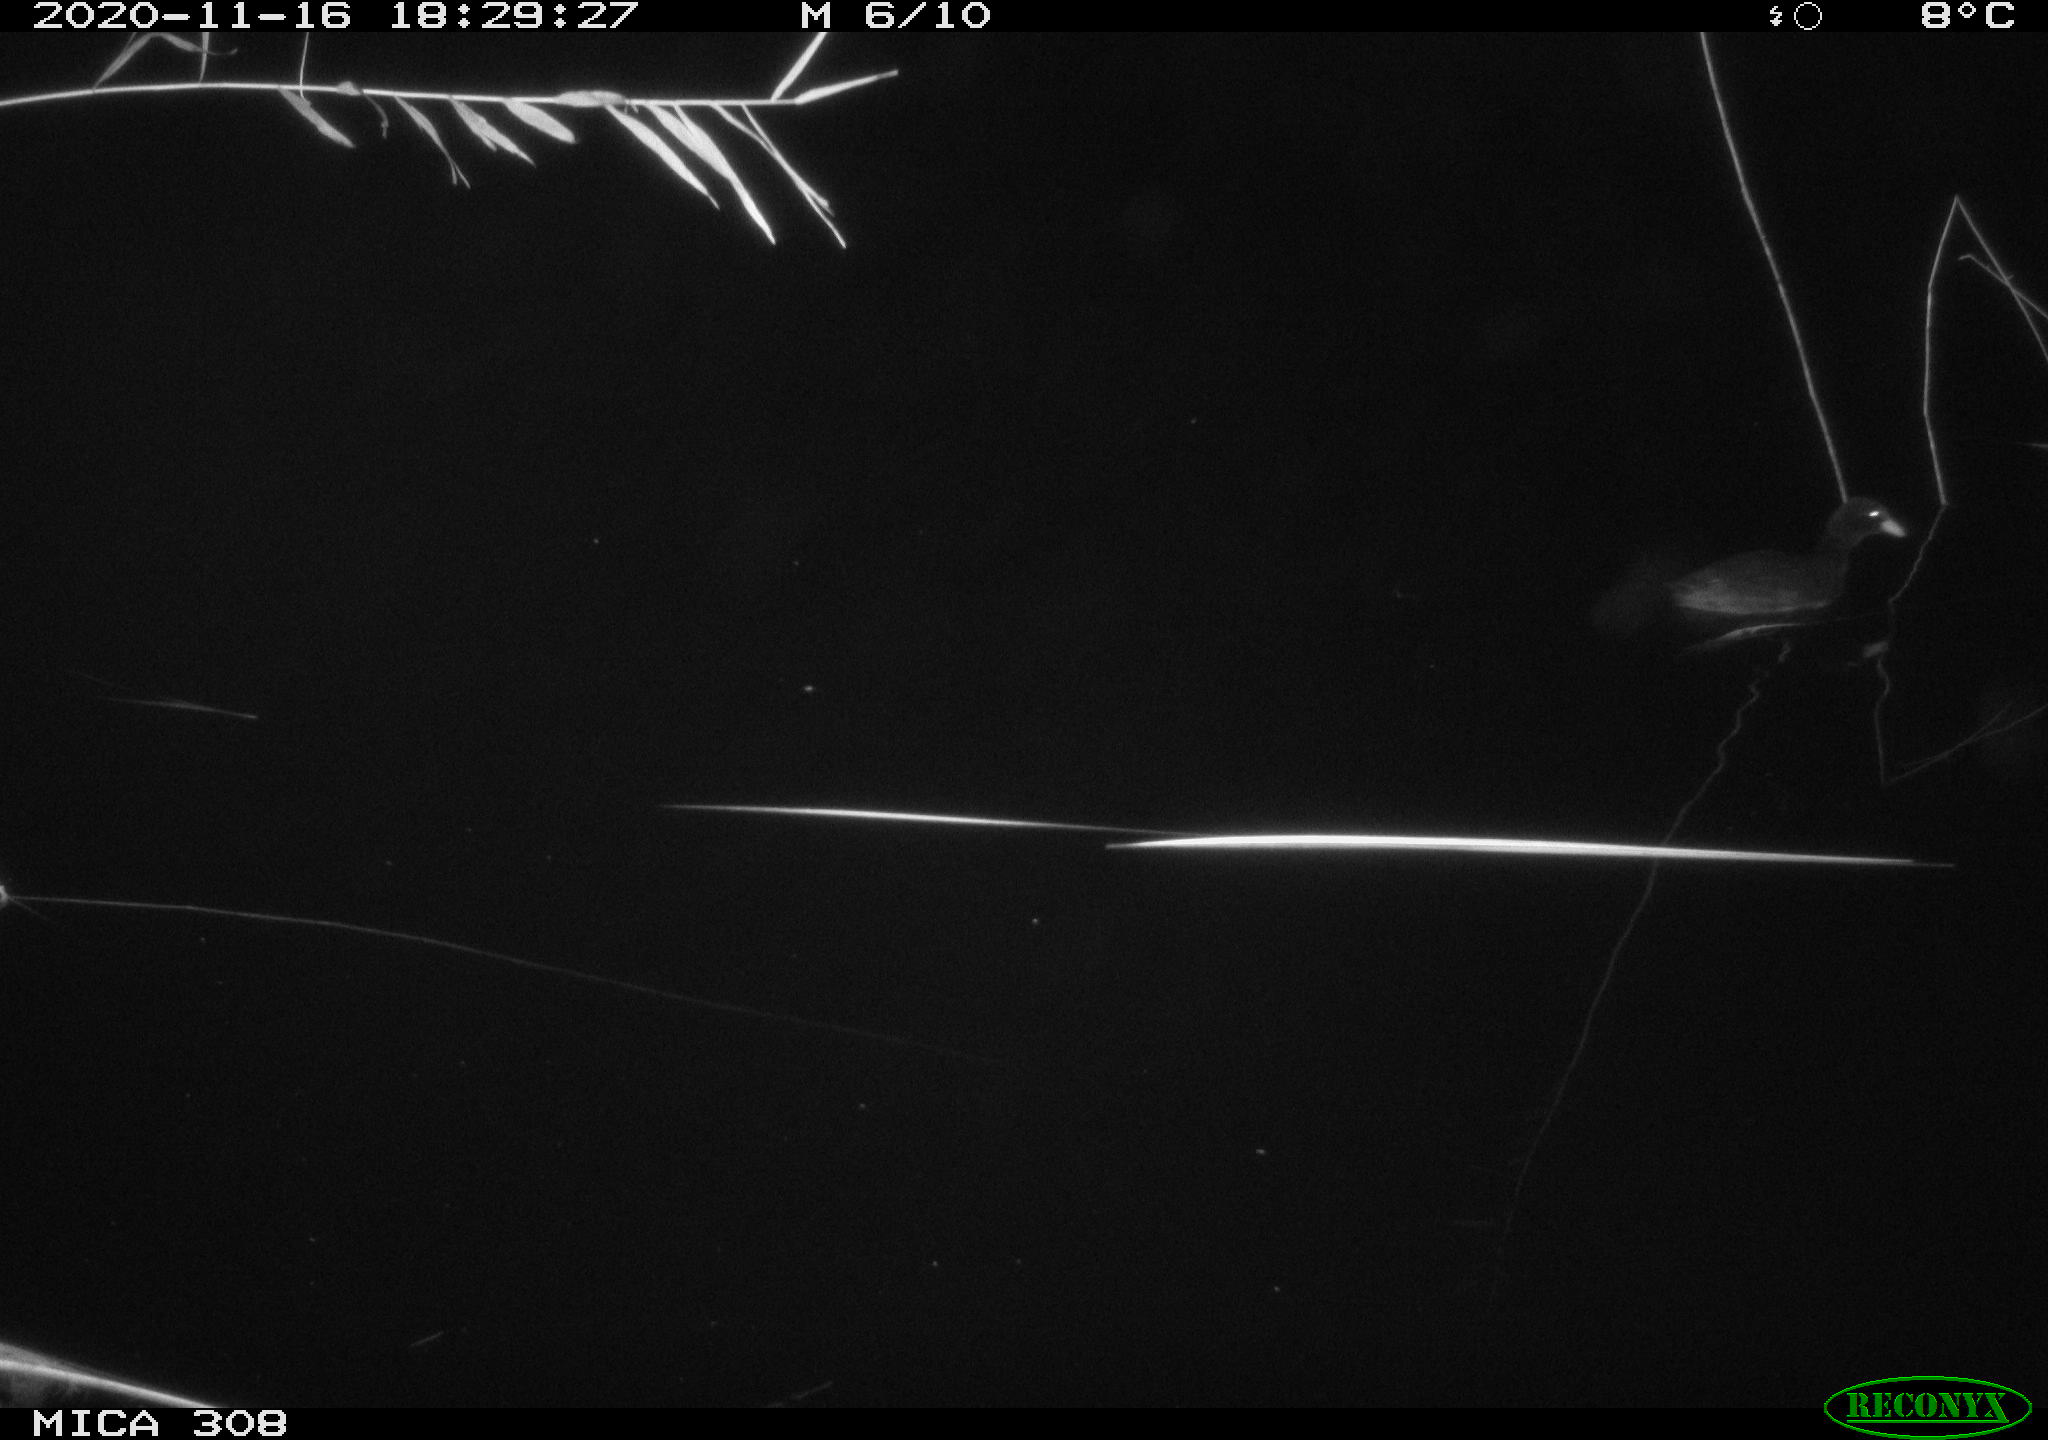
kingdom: Animalia
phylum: Chordata
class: Aves
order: Gruiformes
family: Rallidae
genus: Fulica
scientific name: Fulica atra
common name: Eurasian coot
